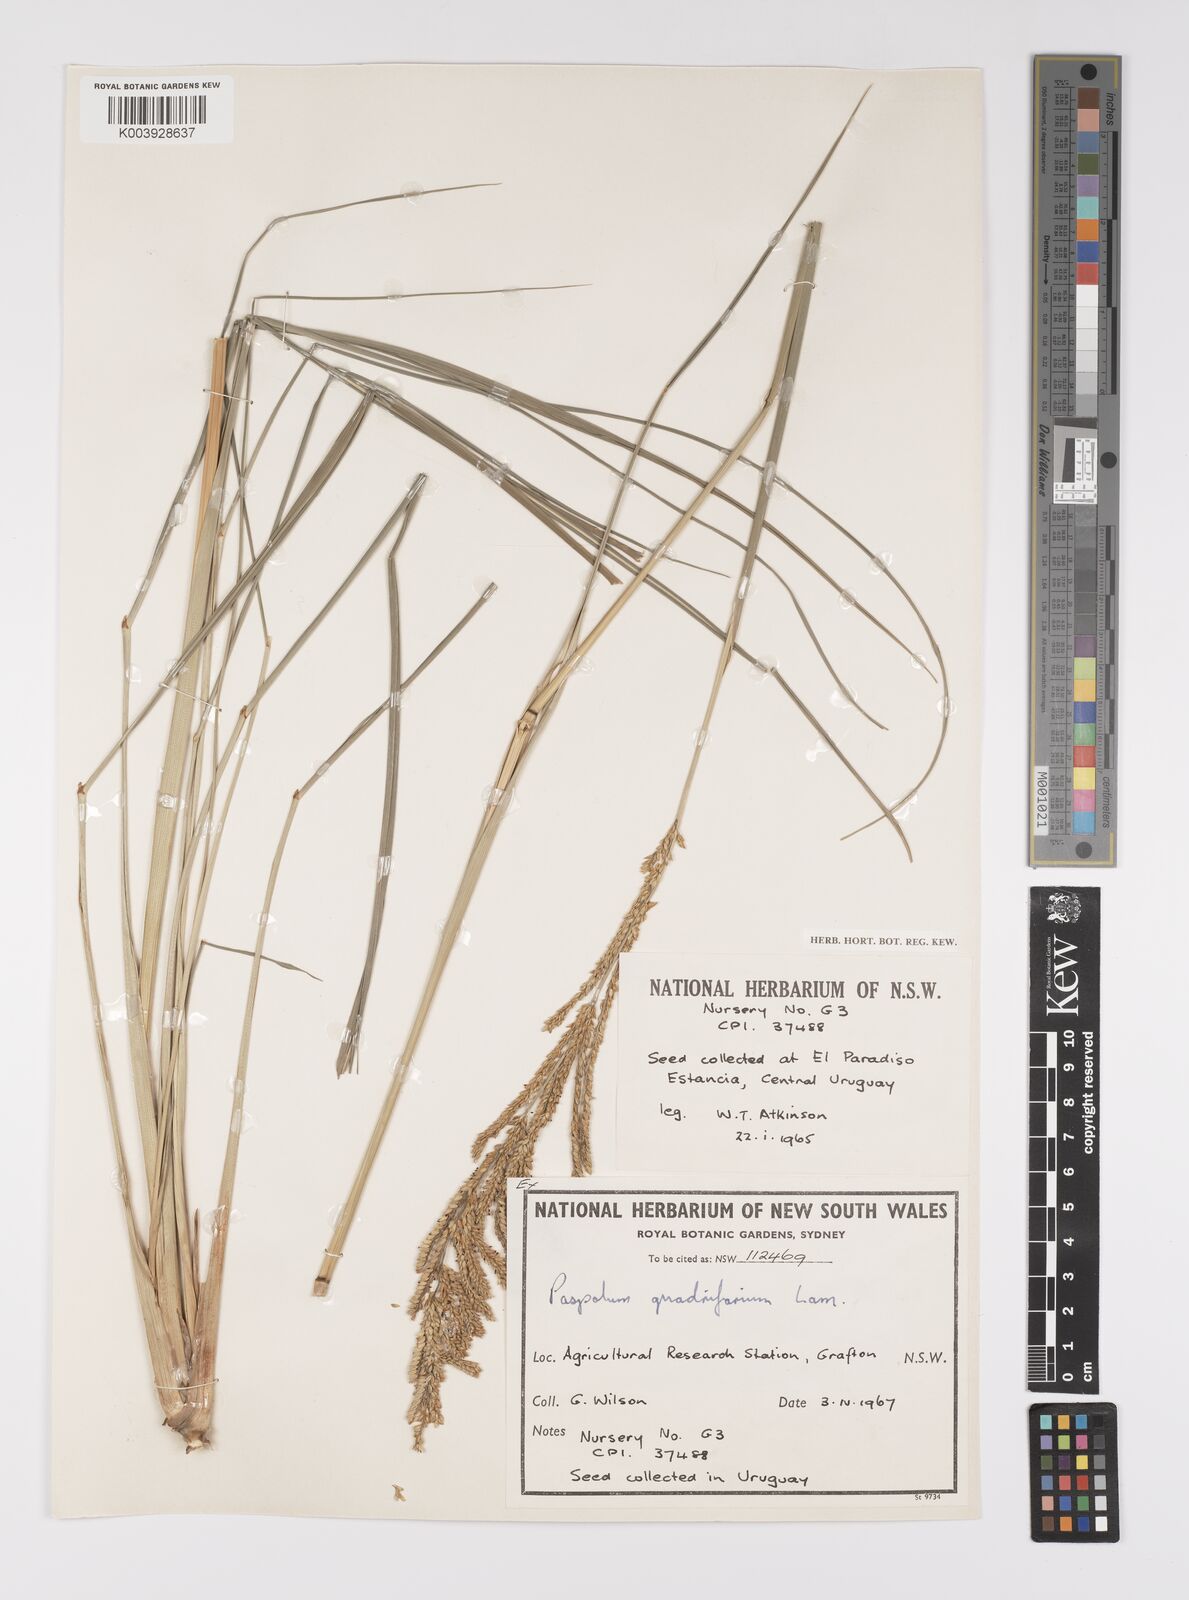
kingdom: Plantae
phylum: Tracheophyta
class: Liliopsida
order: Poales
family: Poaceae
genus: Paspalum
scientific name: Paspalum quadrifarium
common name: Tussock paspalum
